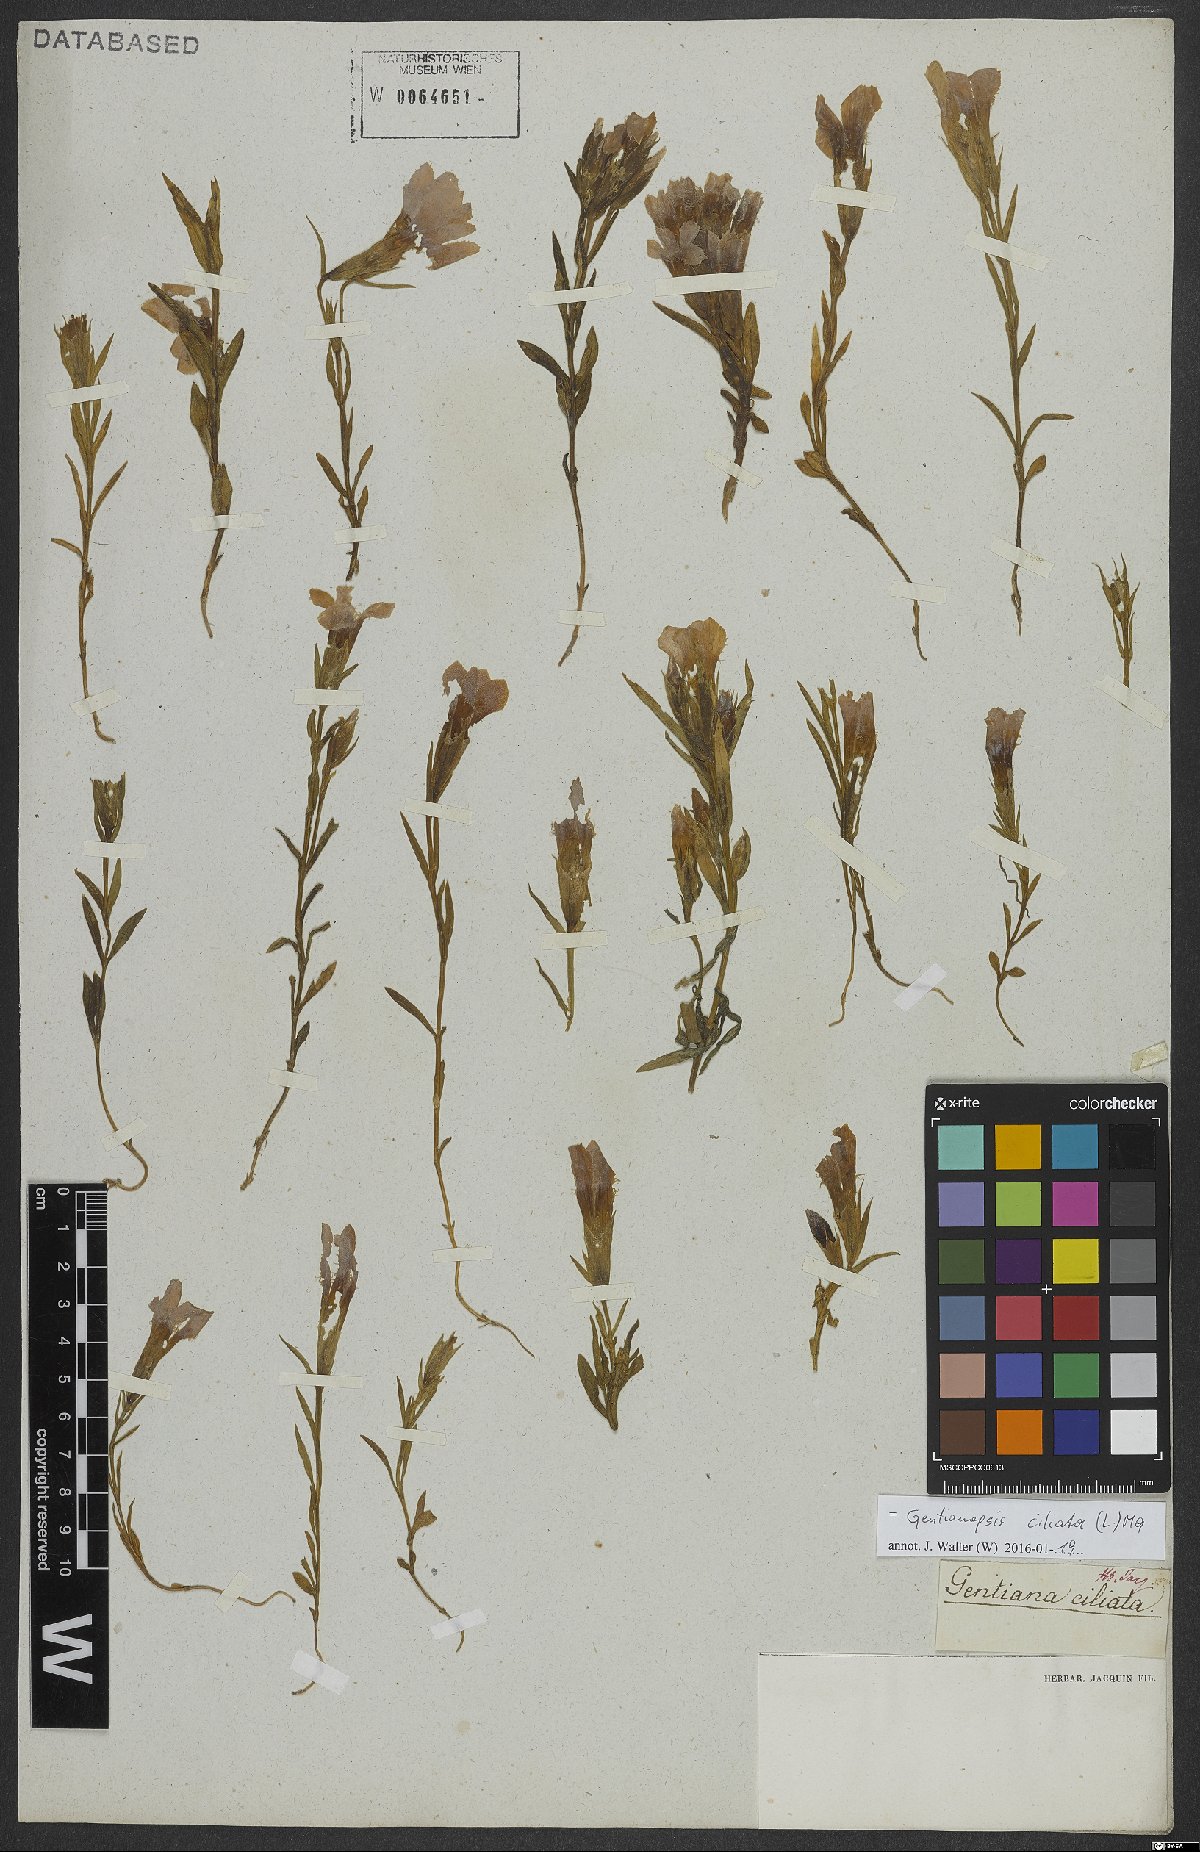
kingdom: Plantae
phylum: Tracheophyta
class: Magnoliopsida
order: Gentianales
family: Gentianaceae
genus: Gentianopsis
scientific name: Gentianopsis ciliata
